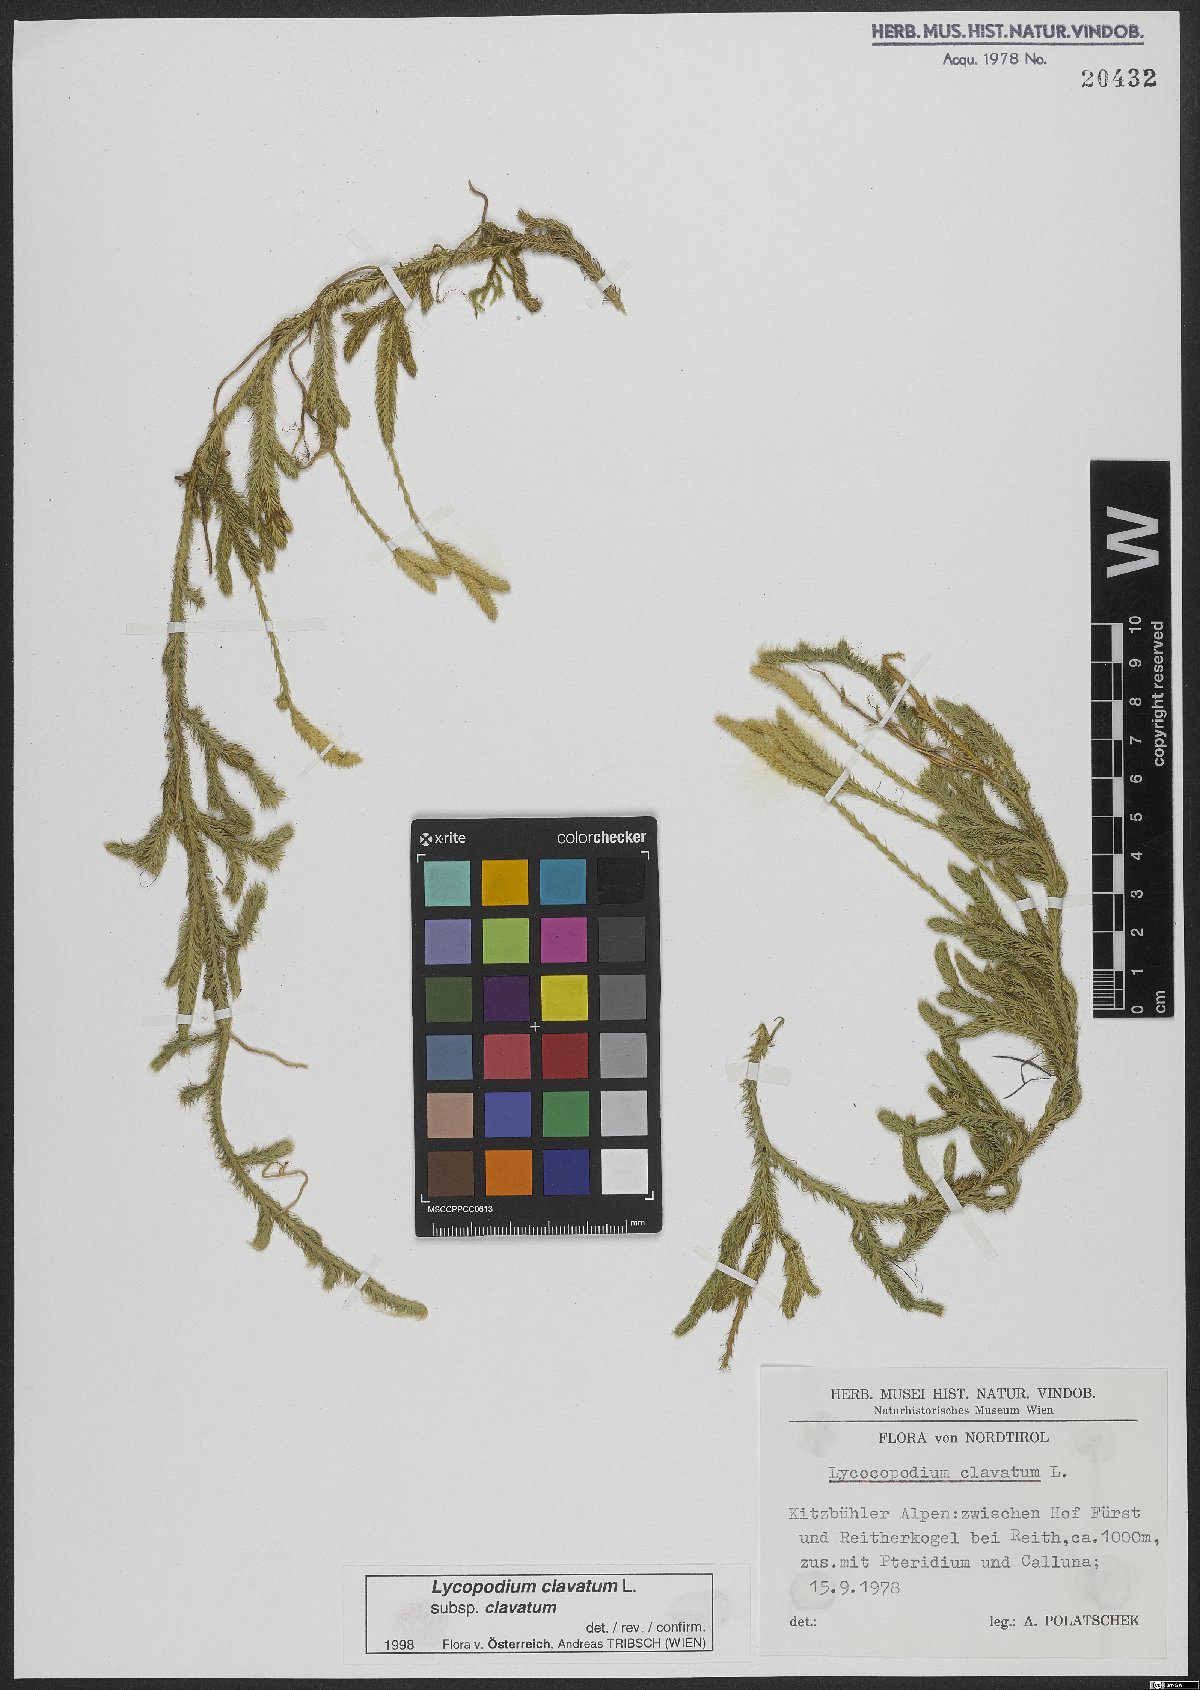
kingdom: Plantae
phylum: Tracheophyta
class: Lycopodiopsida
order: Lycopodiales
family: Lycopodiaceae
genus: Lycopodium
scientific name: Lycopodium clavatum
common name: Stag's-horn clubmoss
